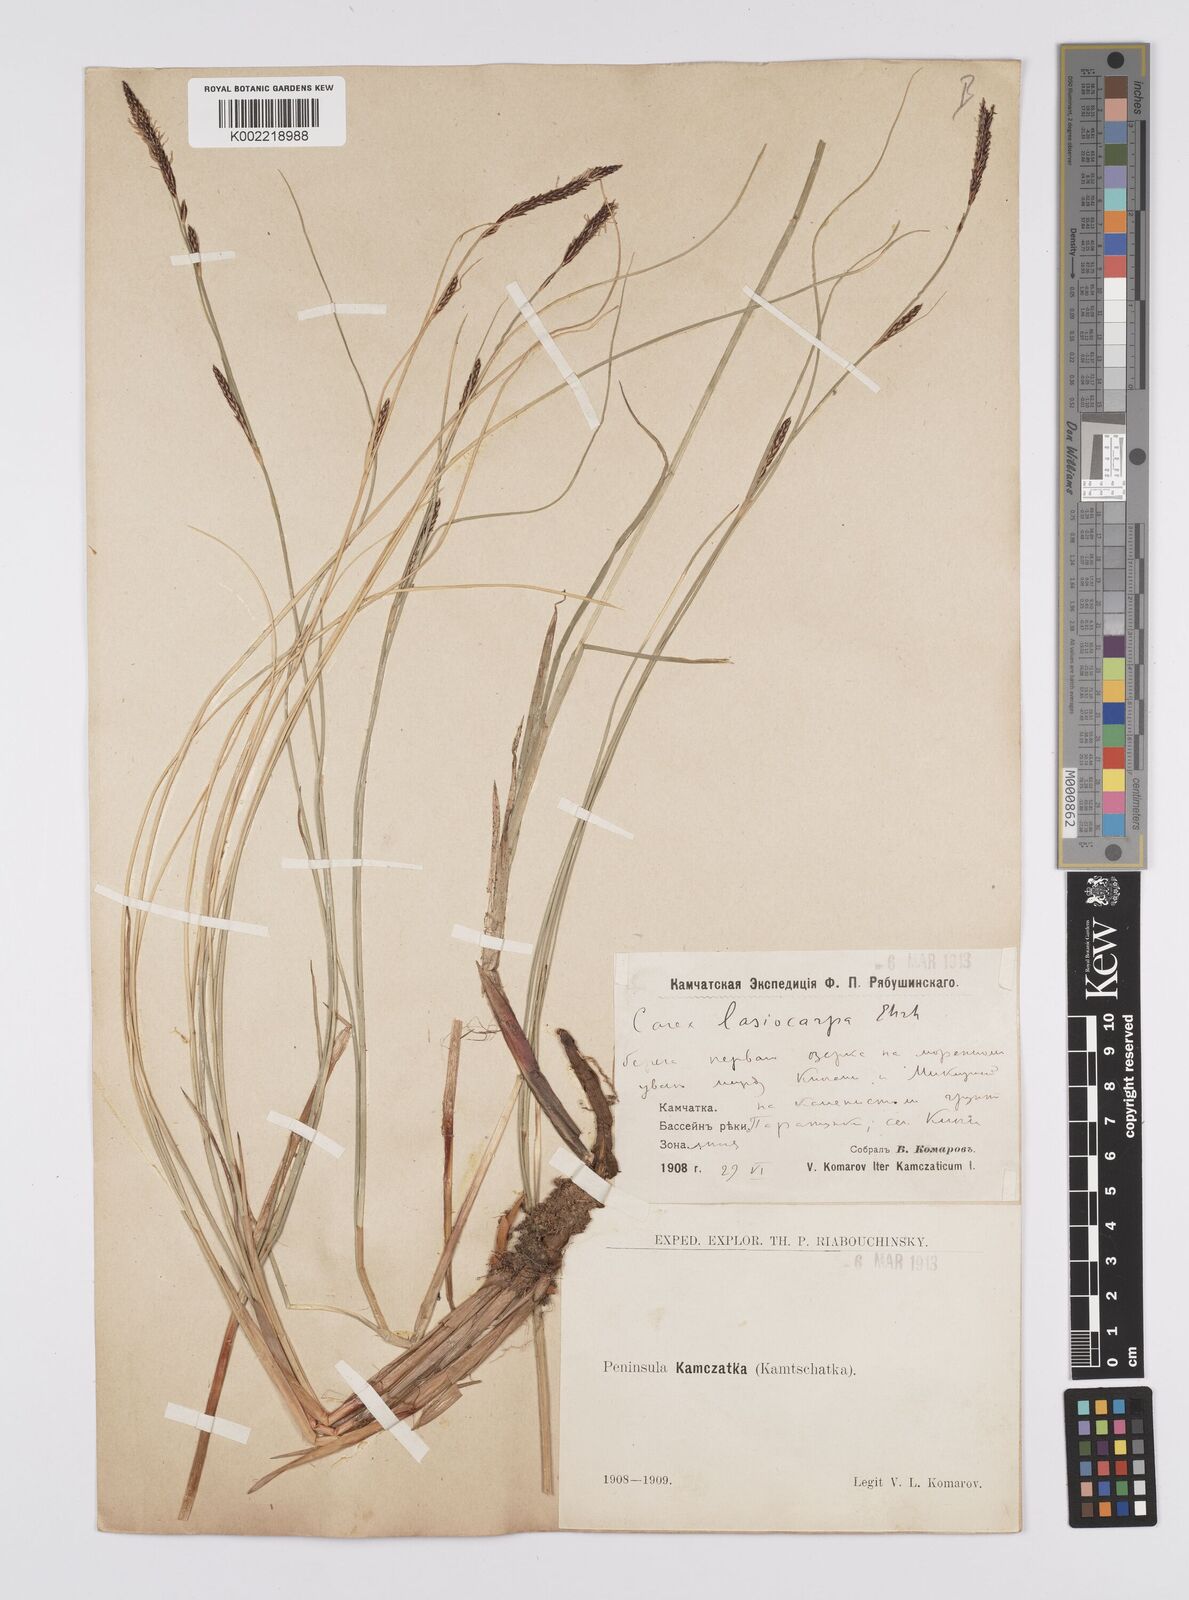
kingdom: Plantae
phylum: Tracheophyta
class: Liliopsida
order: Poales
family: Cyperaceae
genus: Carex
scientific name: Carex lasiocarpa
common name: Slender sedge
